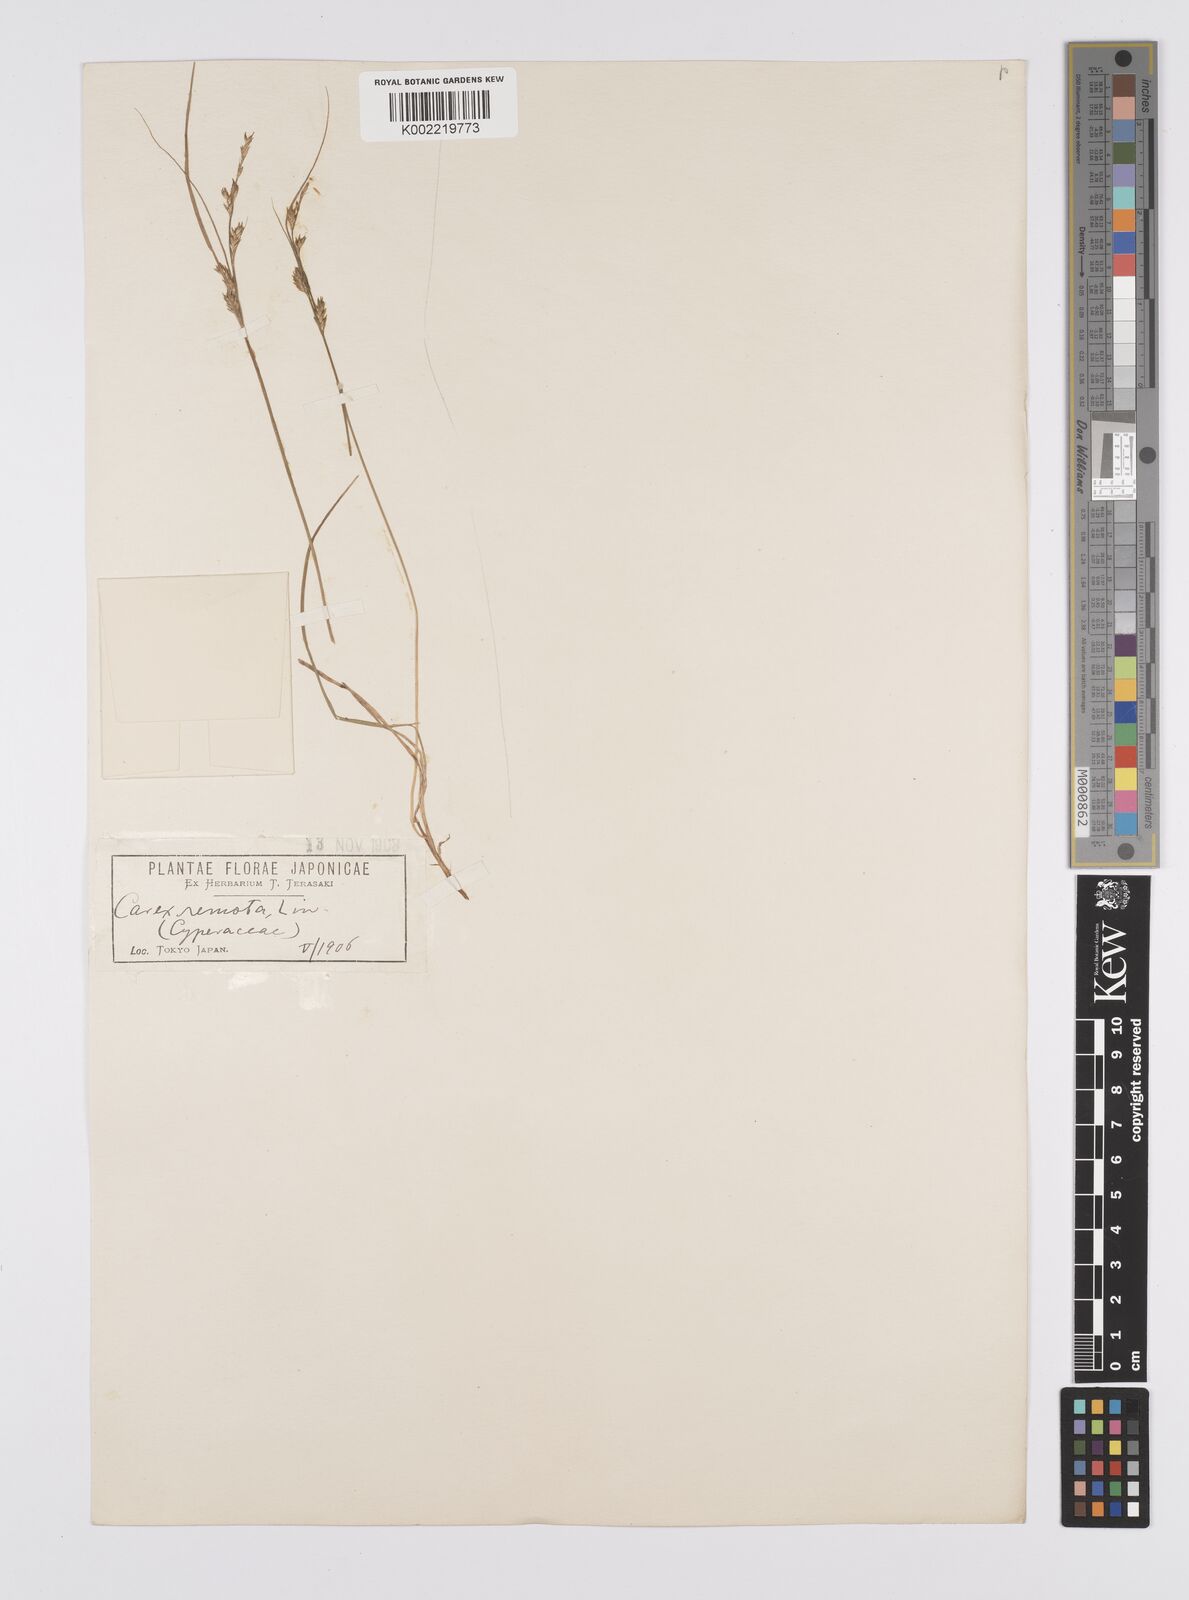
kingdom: Plantae
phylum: Tracheophyta
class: Liliopsida
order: Poales
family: Cyperaceae
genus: Carex
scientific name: Carex remota
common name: Remote sedge
